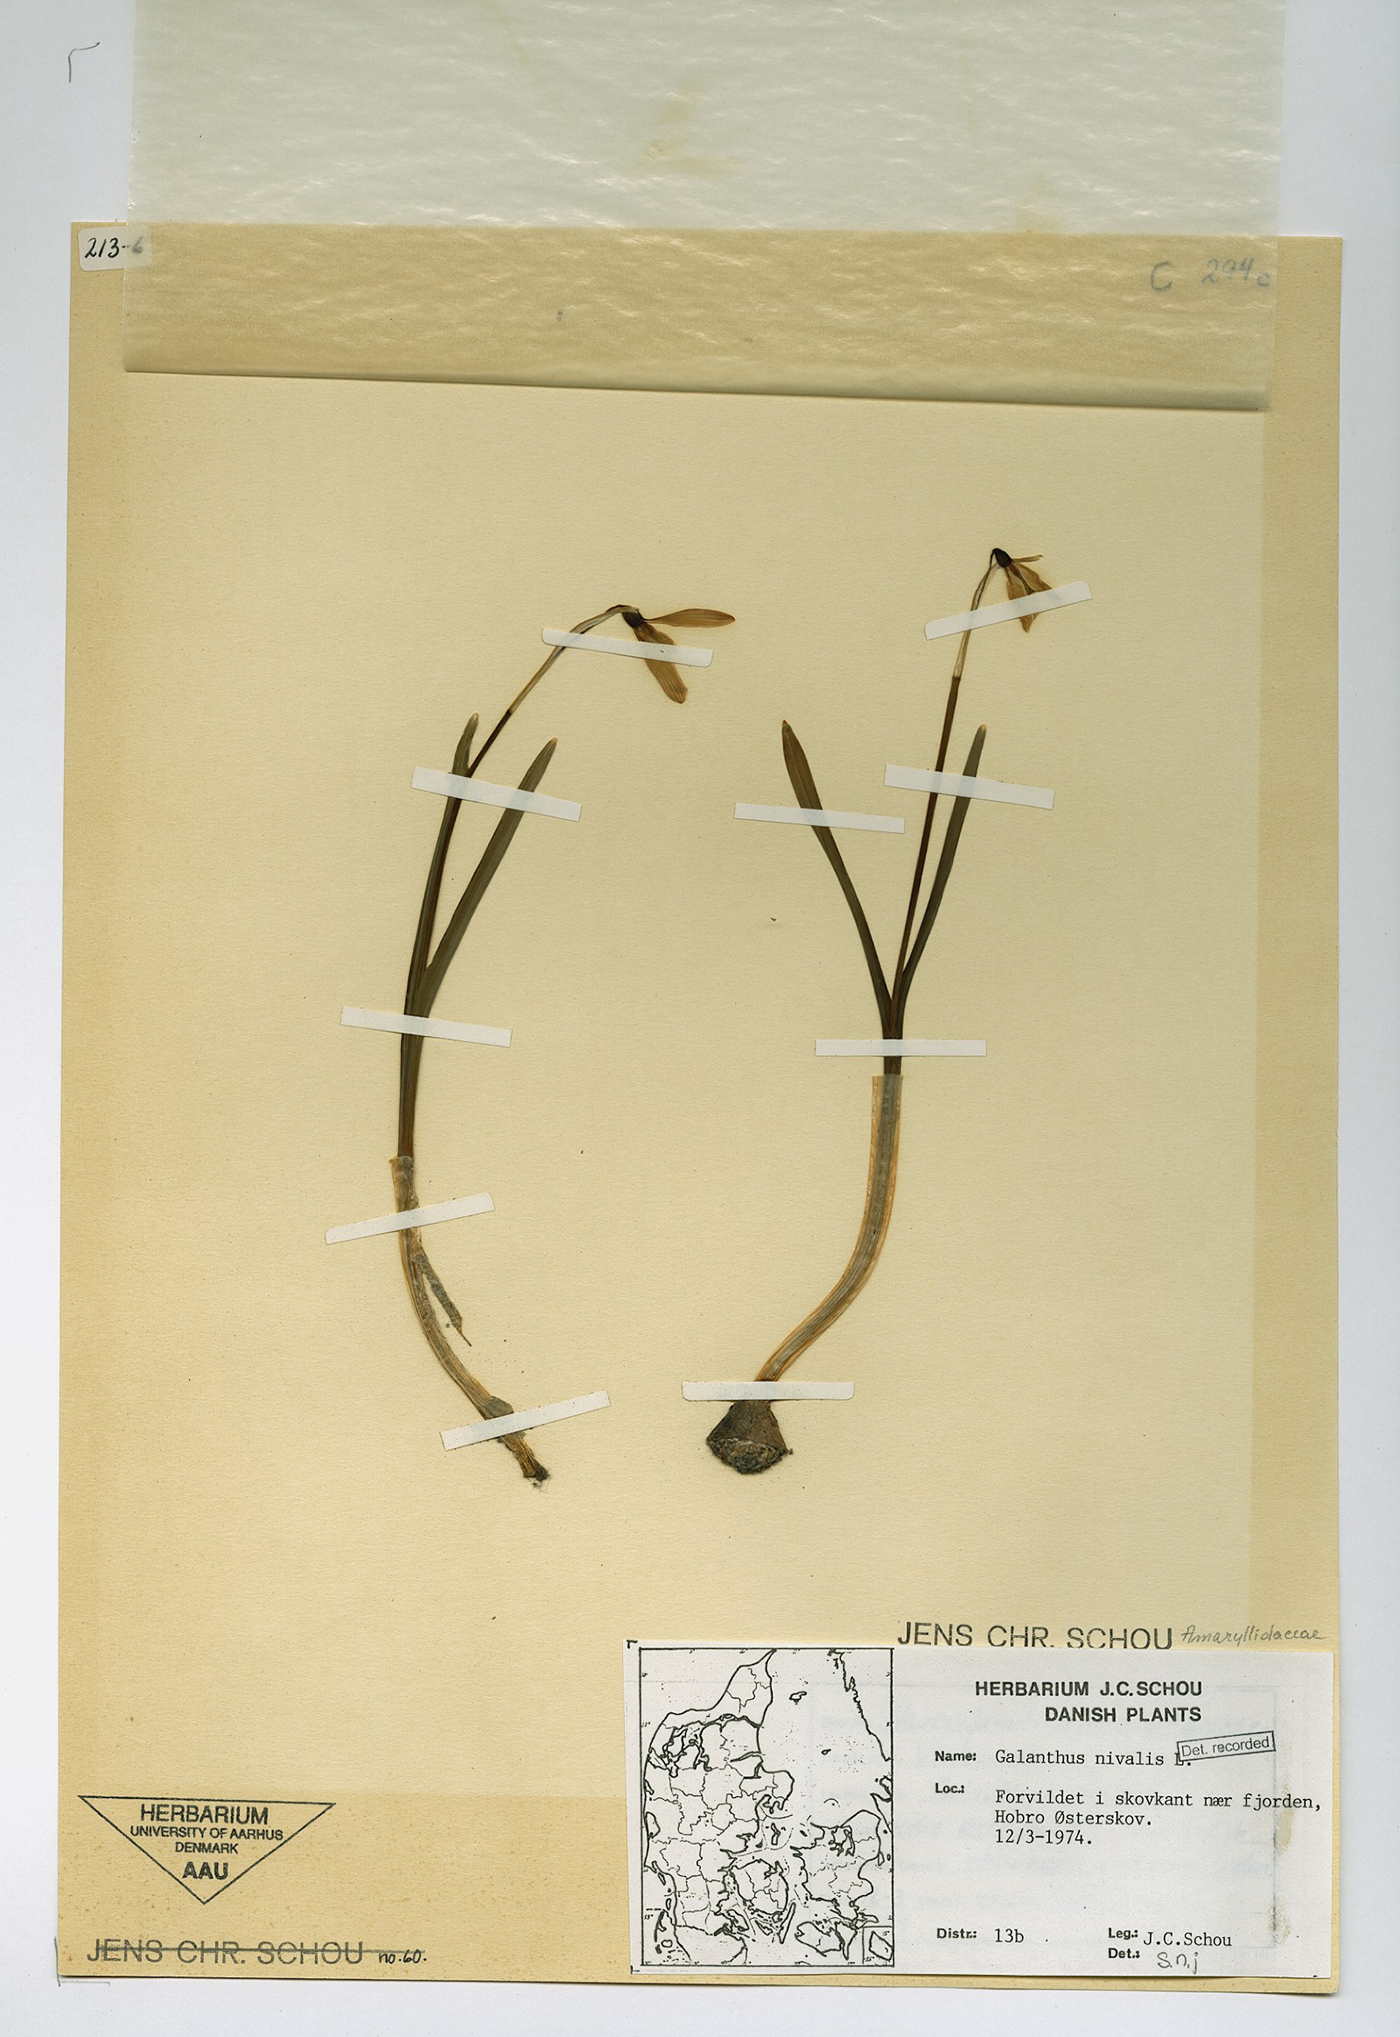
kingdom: Plantae
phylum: Tracheophyta
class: Liliopsida
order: Asparagales
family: Amaryllidaceae
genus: Galanthus
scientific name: Galanthus nivalis
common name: Snowdrop
